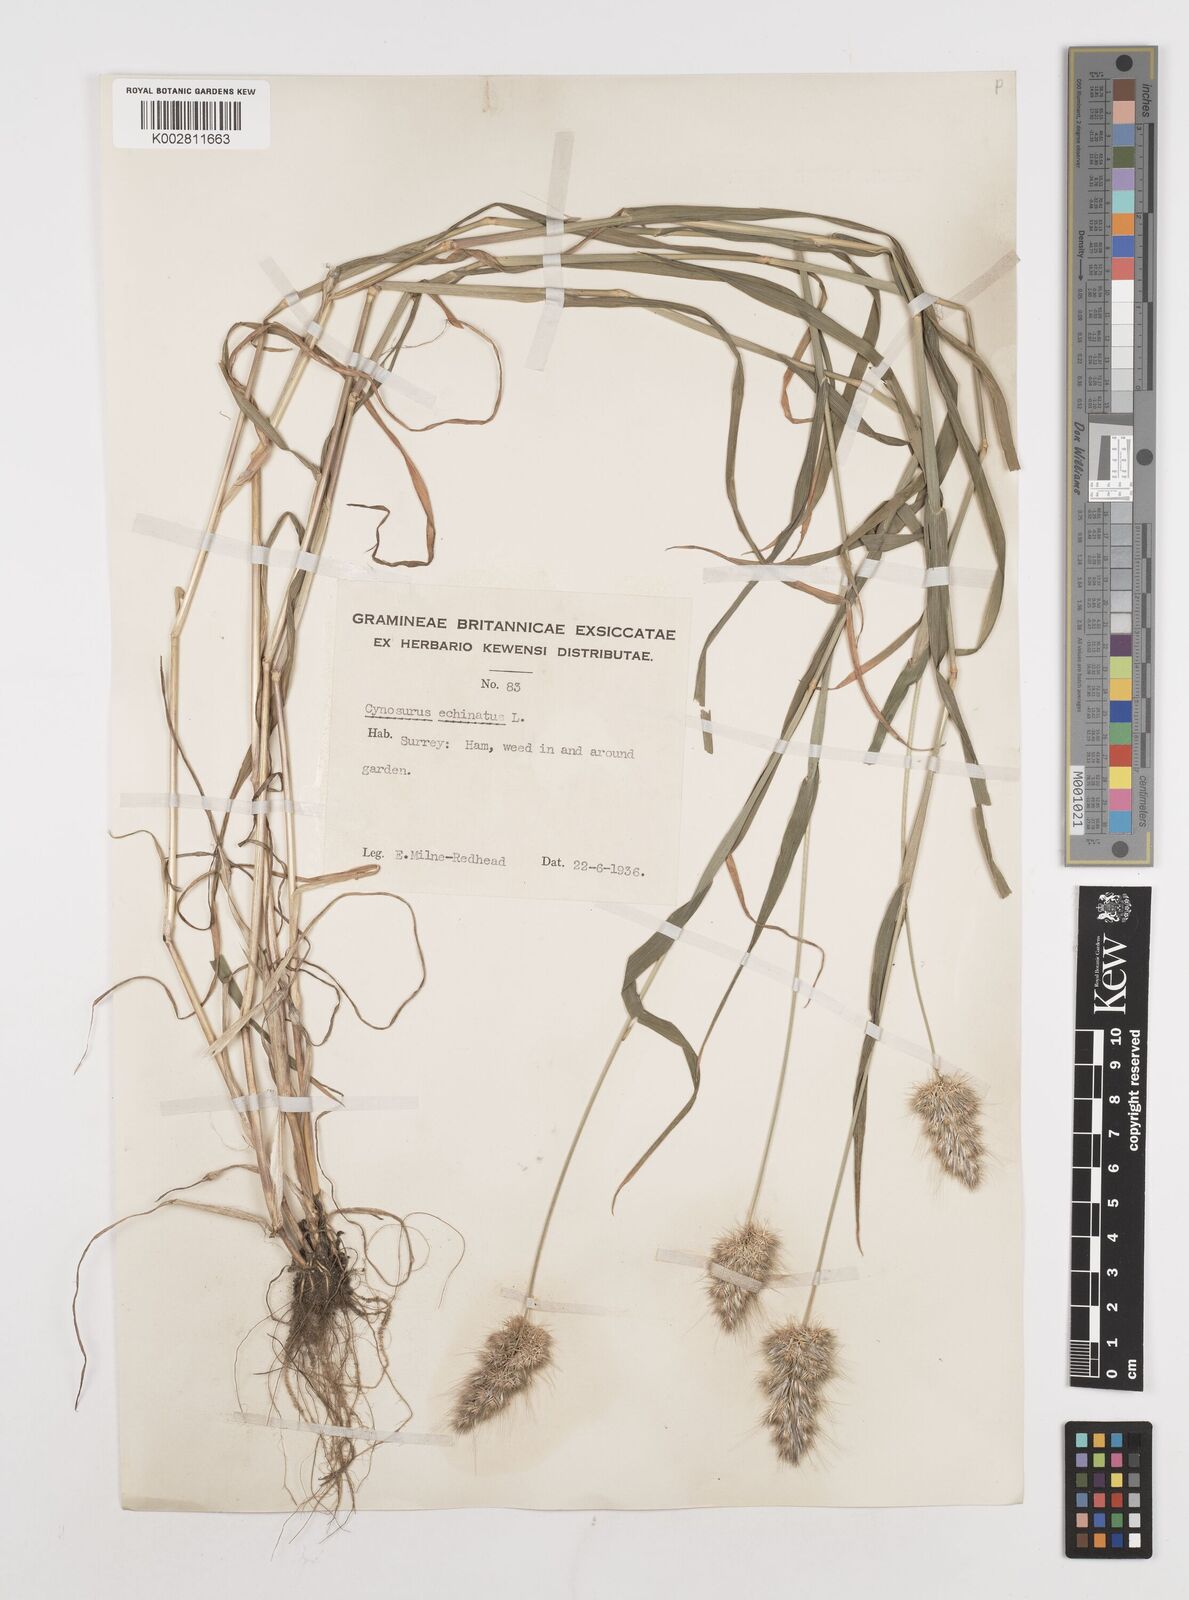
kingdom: Plantae
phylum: Tracheophyta
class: Liliopsida
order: Poales
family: Poaceae
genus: Cynosurus
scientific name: Cynosurus echinatus
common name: Rough dog's-tail
